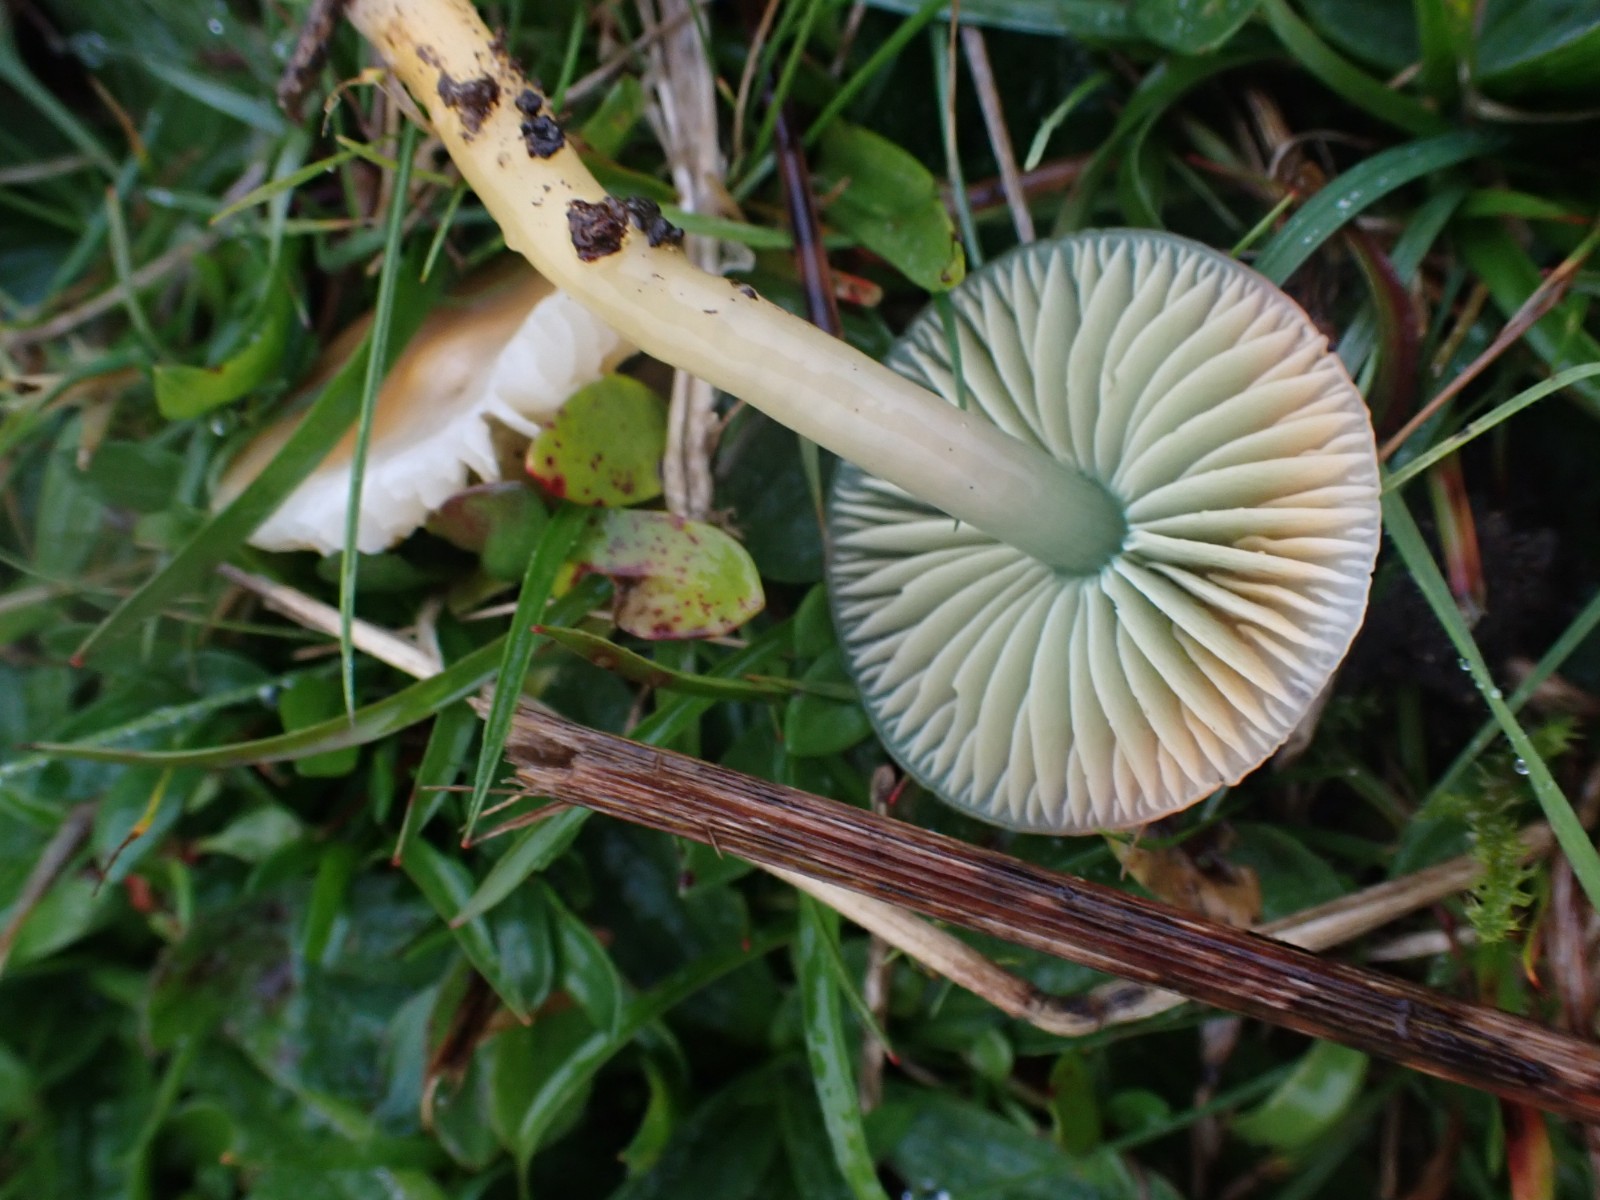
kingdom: Fungi
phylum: Basidiomycota
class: Agaricomycetes
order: Agaricales
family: Hygrophoraceae
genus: Gliophorus
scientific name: Gliophorus psittacinus
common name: papegøje-vokshat
